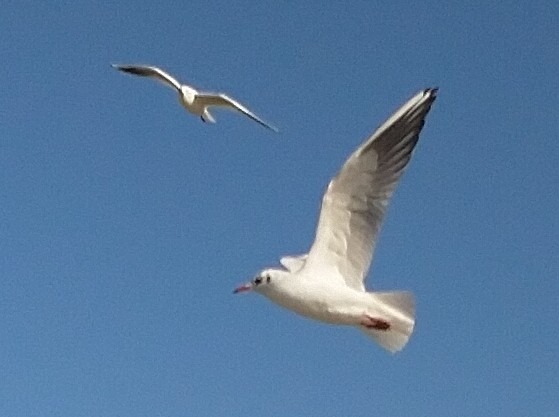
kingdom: Animalia
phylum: Chordata
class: Aves
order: Charadriiformes
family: Laridae
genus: Chroicocephalus
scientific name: Chroicocephalus ridibundus
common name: Hættemåge
